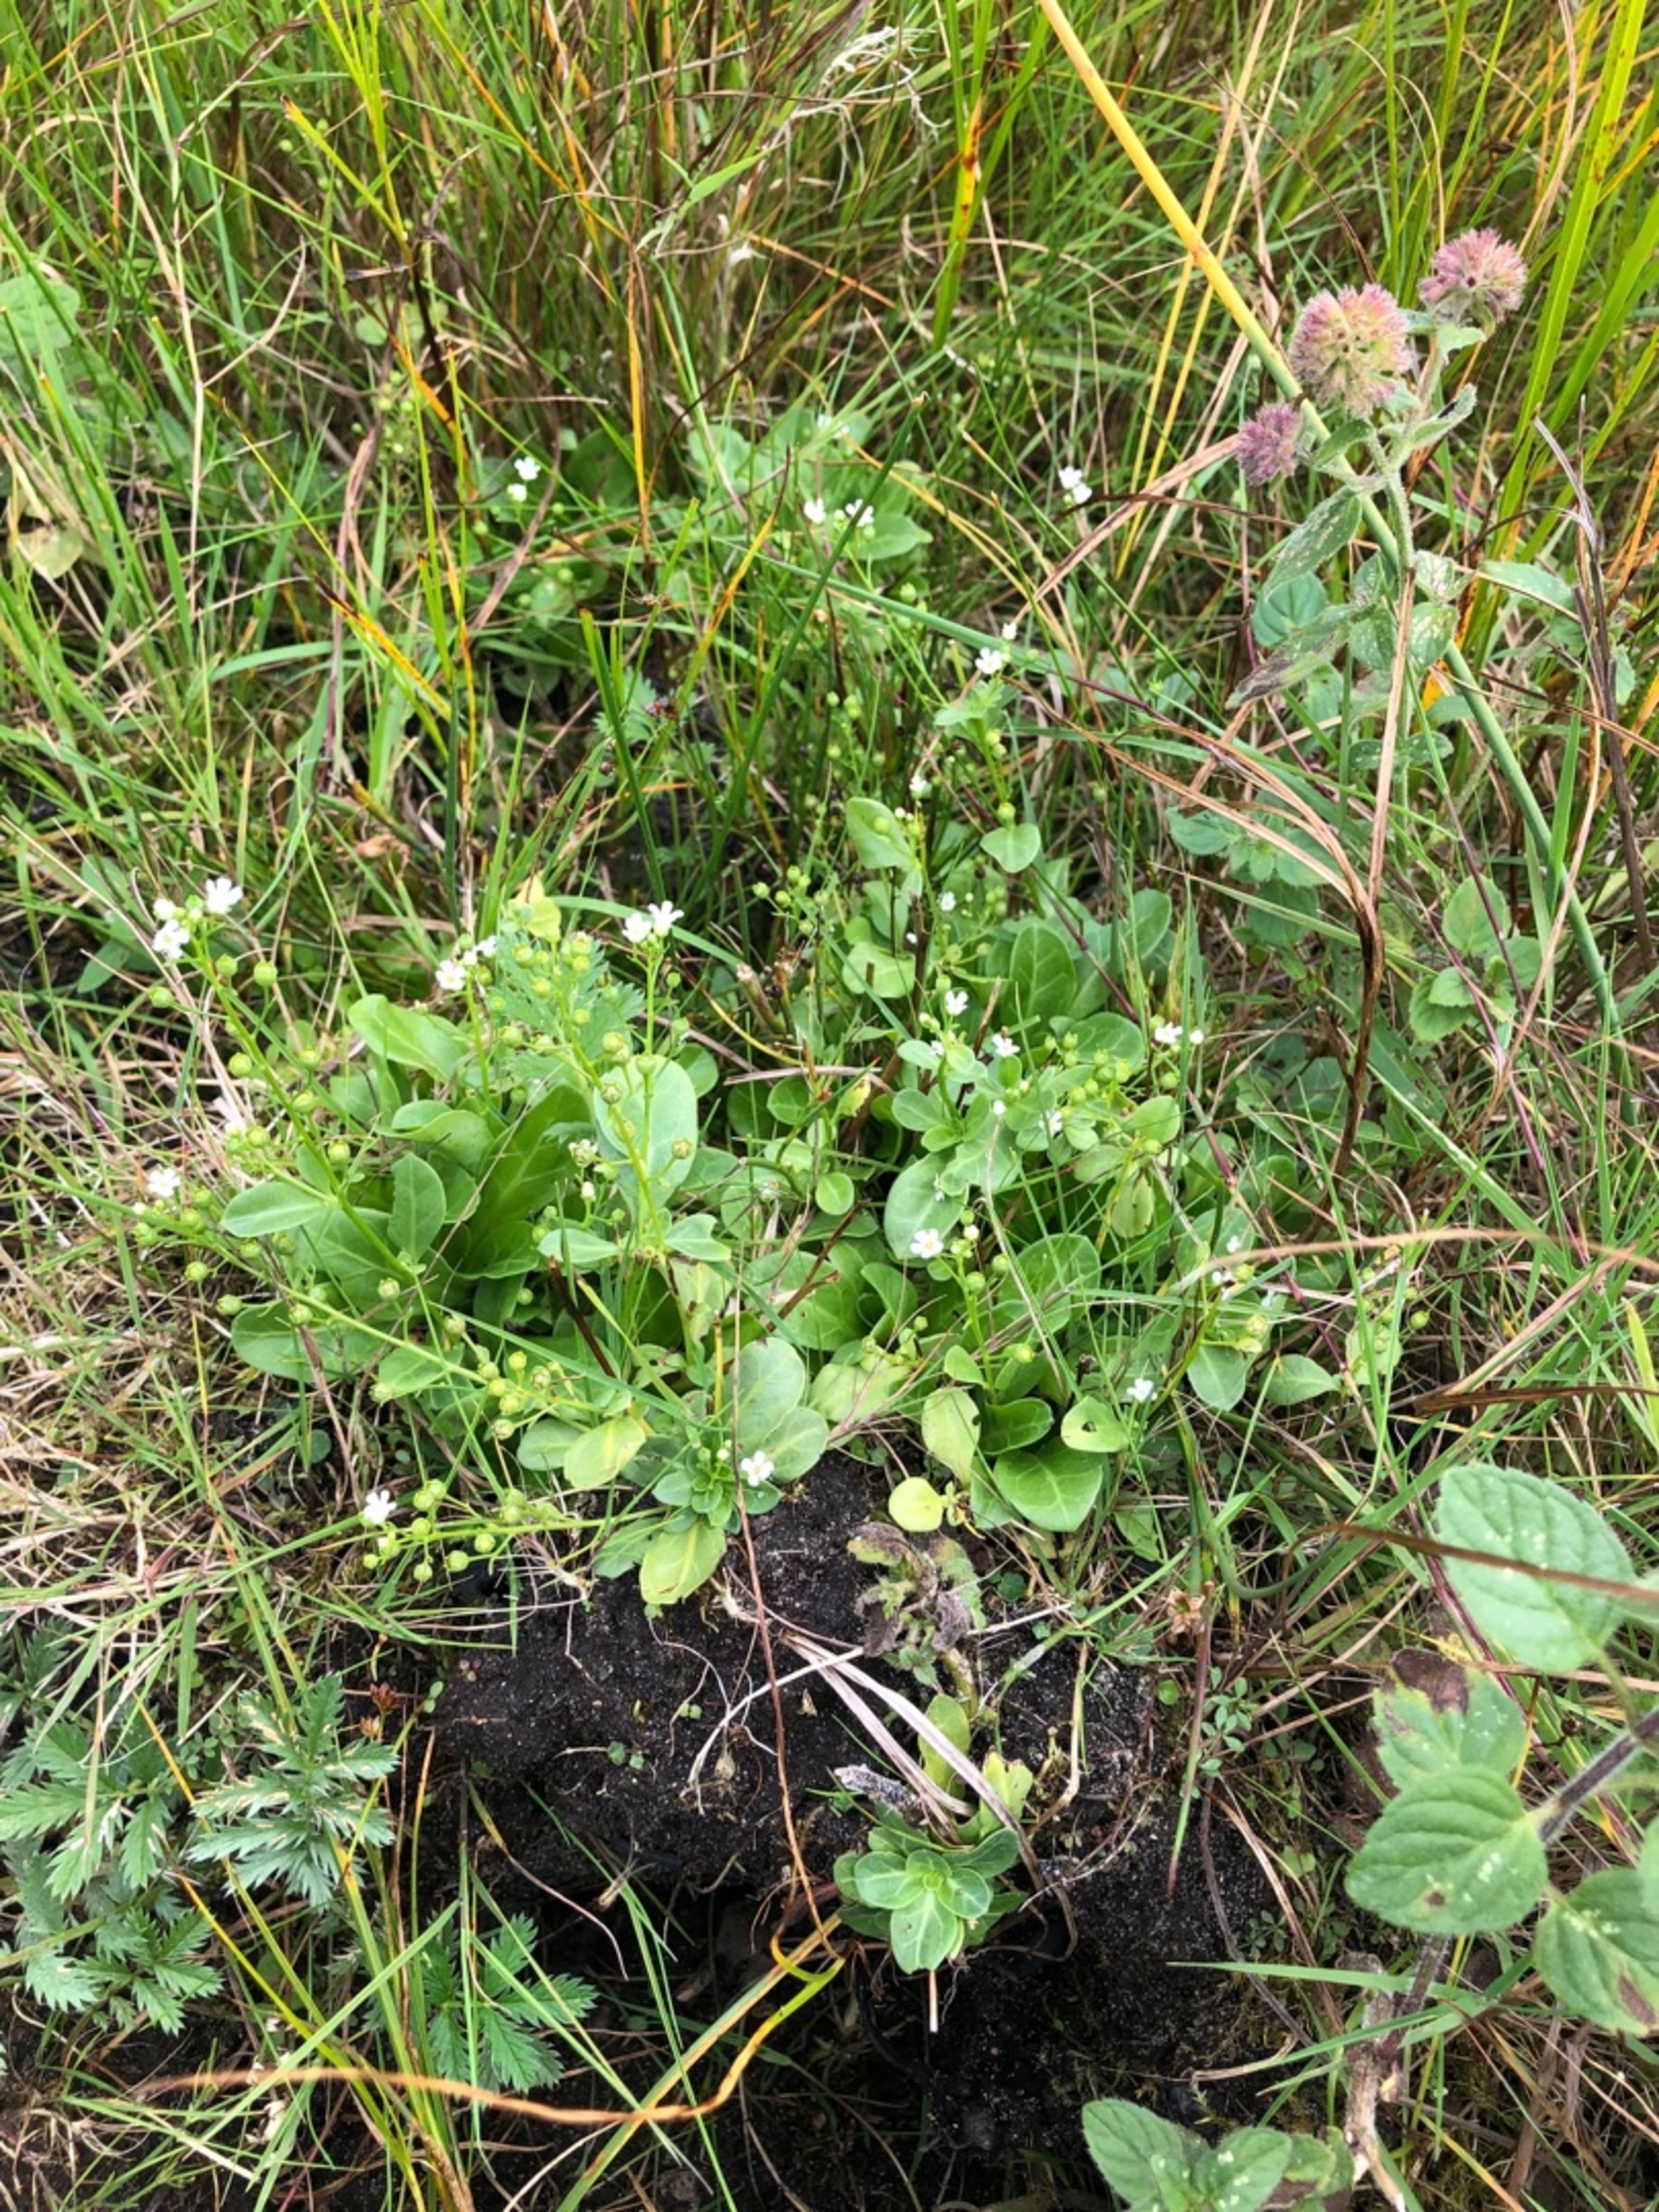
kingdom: Plantae
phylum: Tracheophyta
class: Magnoliopsida
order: Ericales
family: Primulaceae
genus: Samolus
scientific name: Samolus valerandi
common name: Samel
